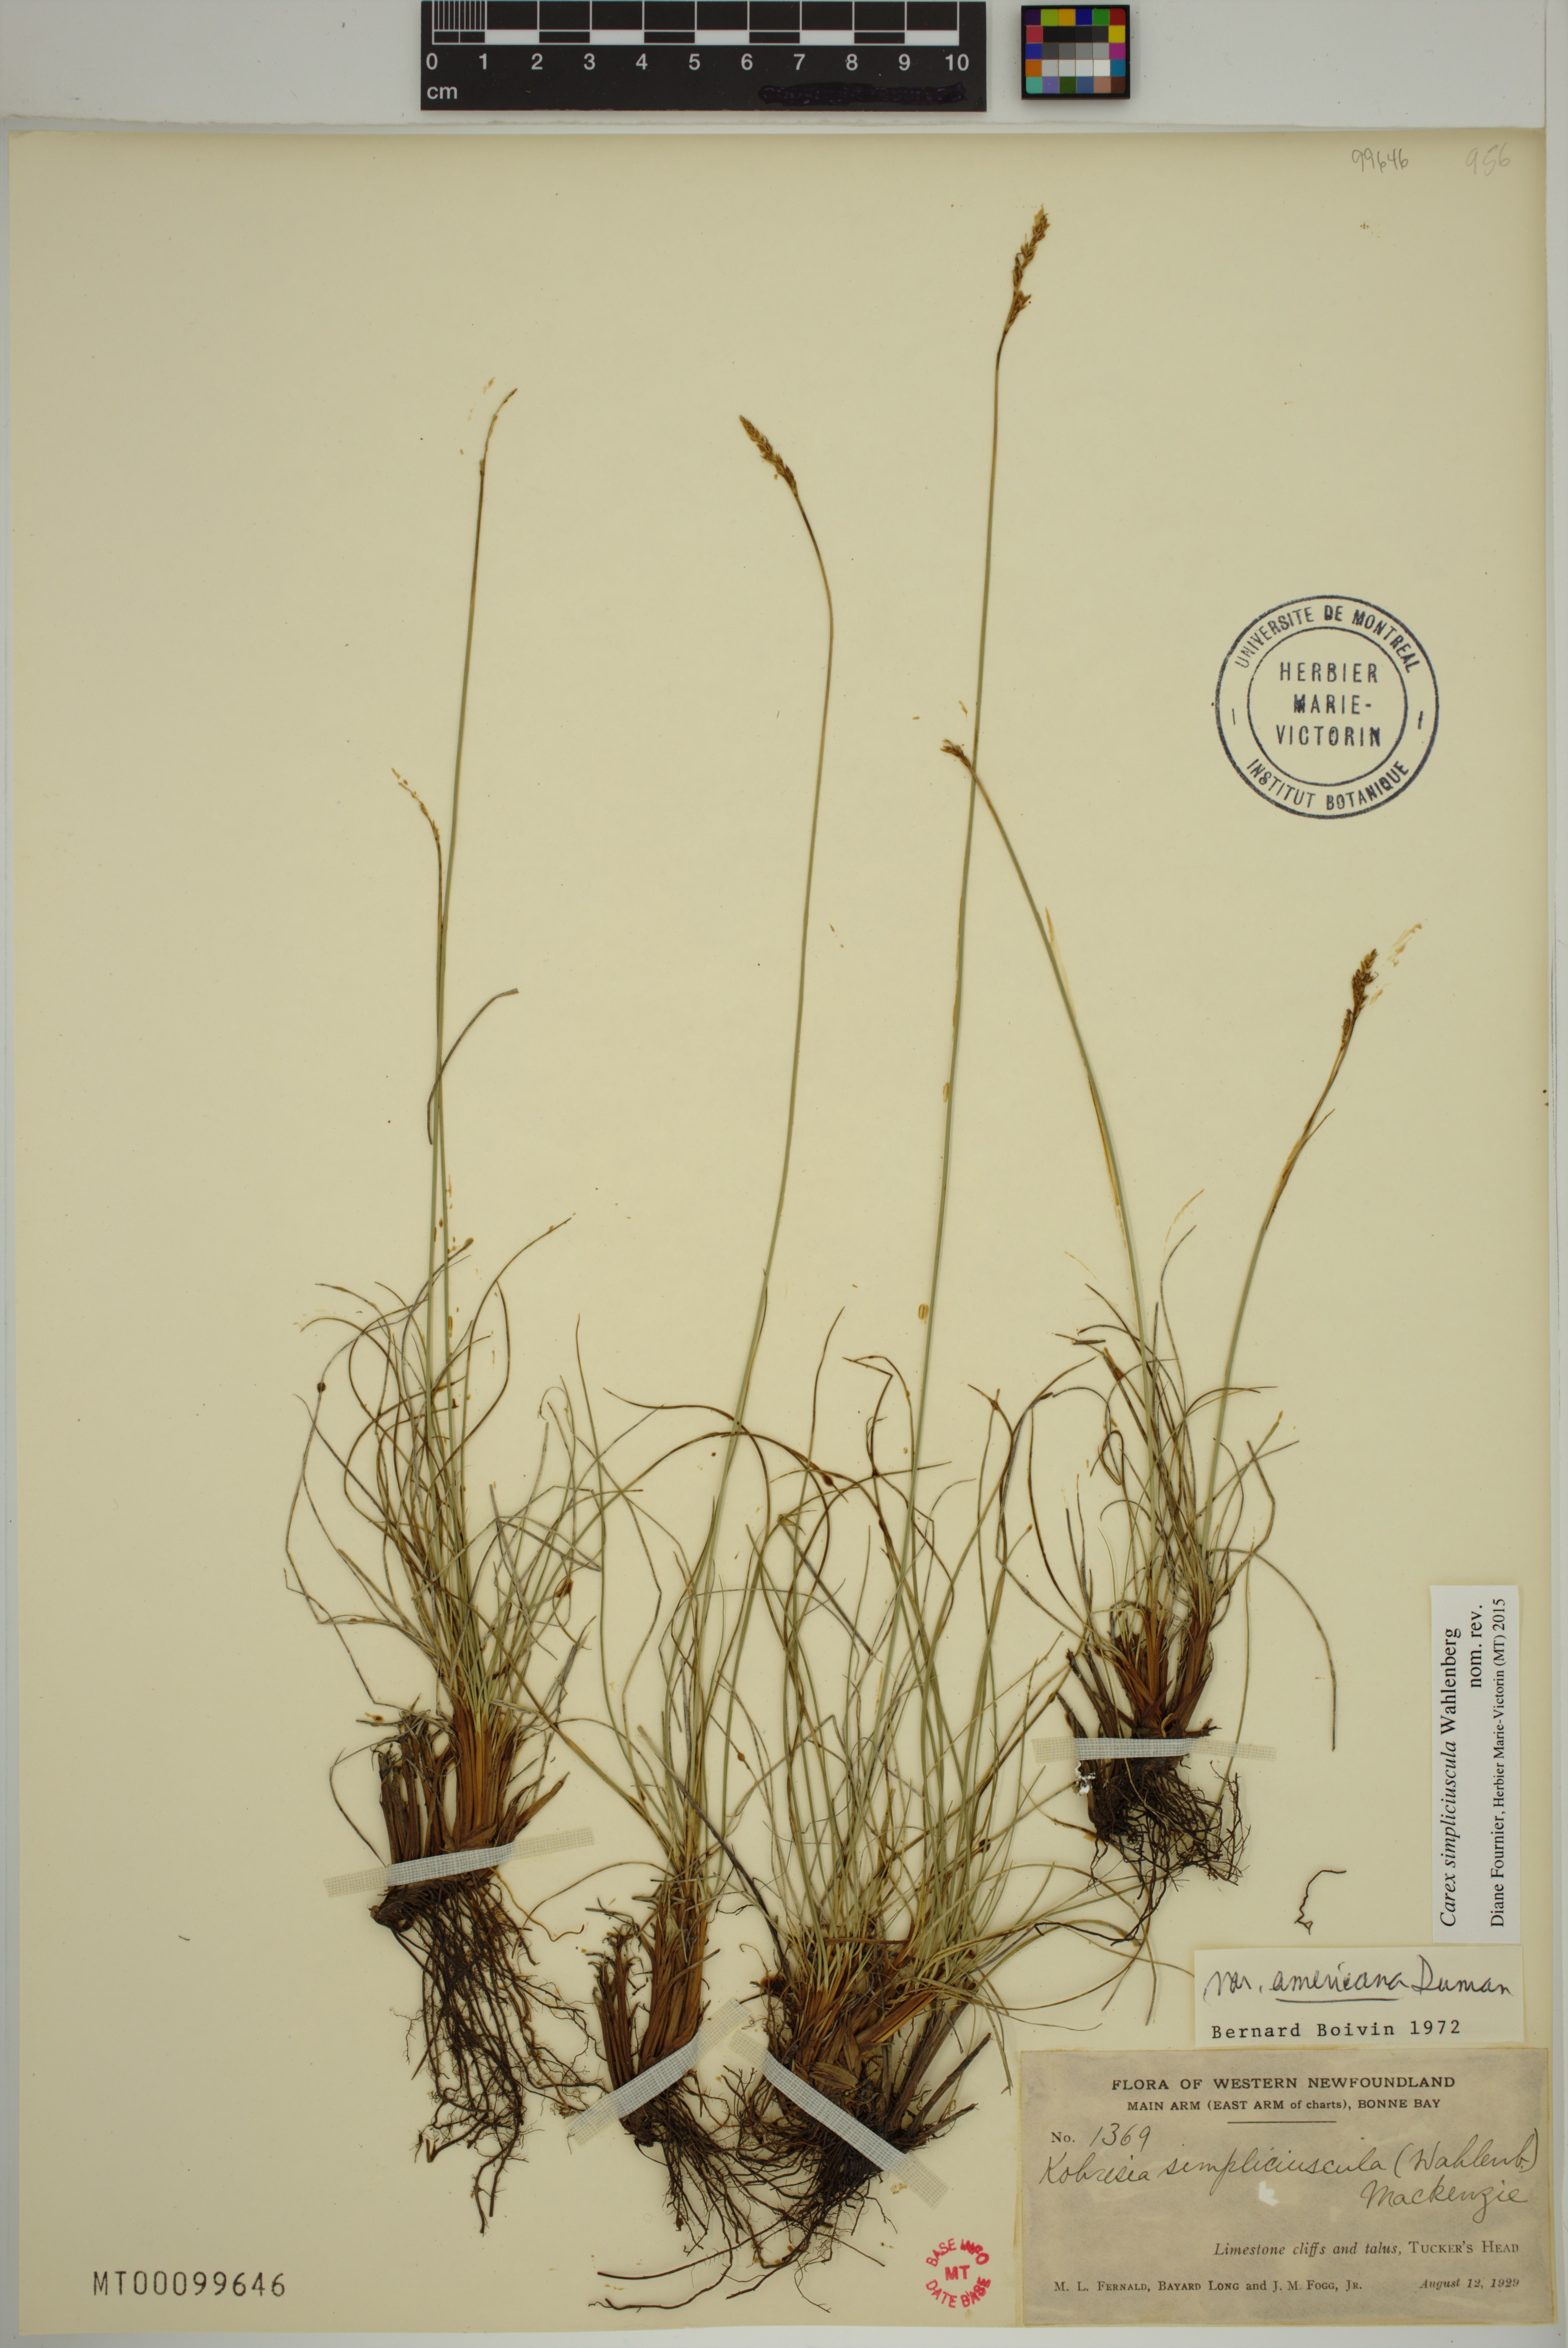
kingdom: Plantae
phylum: Tracheophyta
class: Liliopsida
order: Poales
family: Cyperaceae
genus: Carex
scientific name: Carex simpliciuscula
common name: Simple bog sedge
